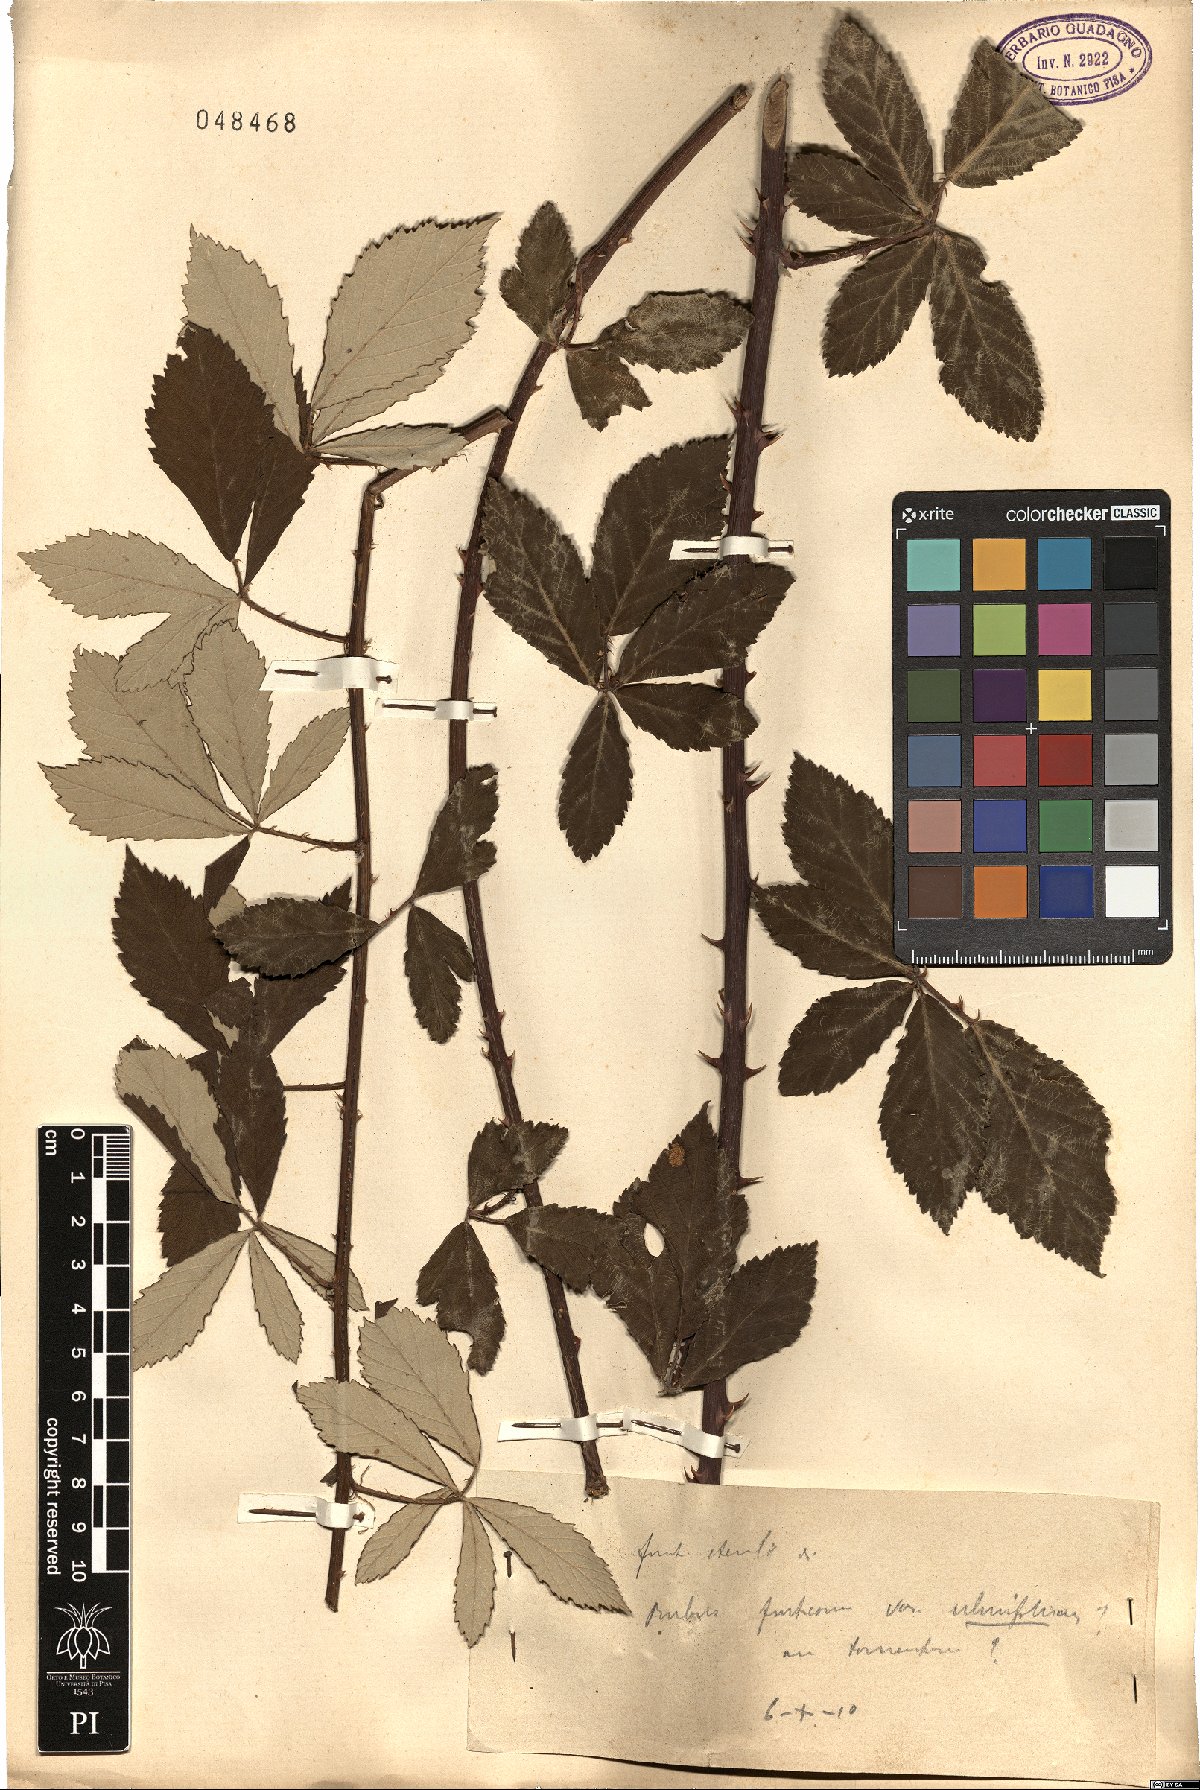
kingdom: Plantae
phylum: Tracheophyta
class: Magnoliopsida
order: Rosales
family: Rosaceae
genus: Rubus
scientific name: Rubus fruticosus
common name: Blackberry, bramble
